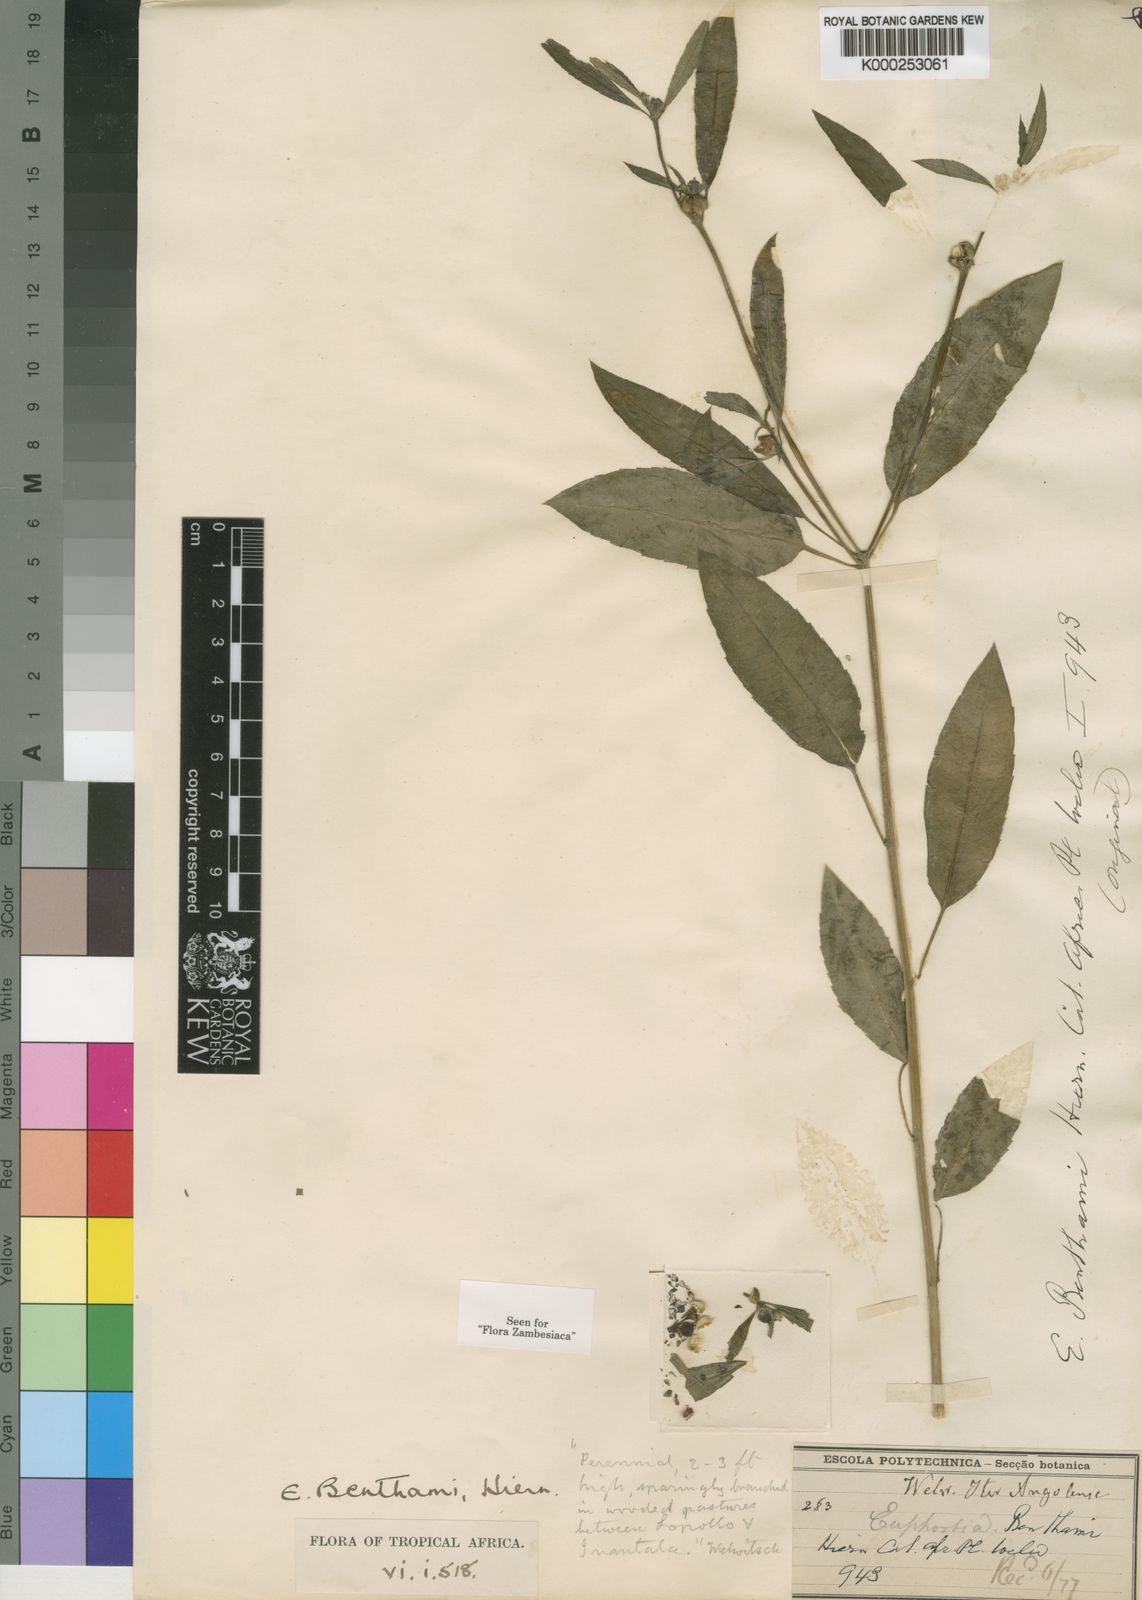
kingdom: Plantae
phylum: Tracheophyta
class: Magnoliopsida
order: Malpighiales
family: Euphorbiaceae
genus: Euphorbia
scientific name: Euphorbia benthamii
